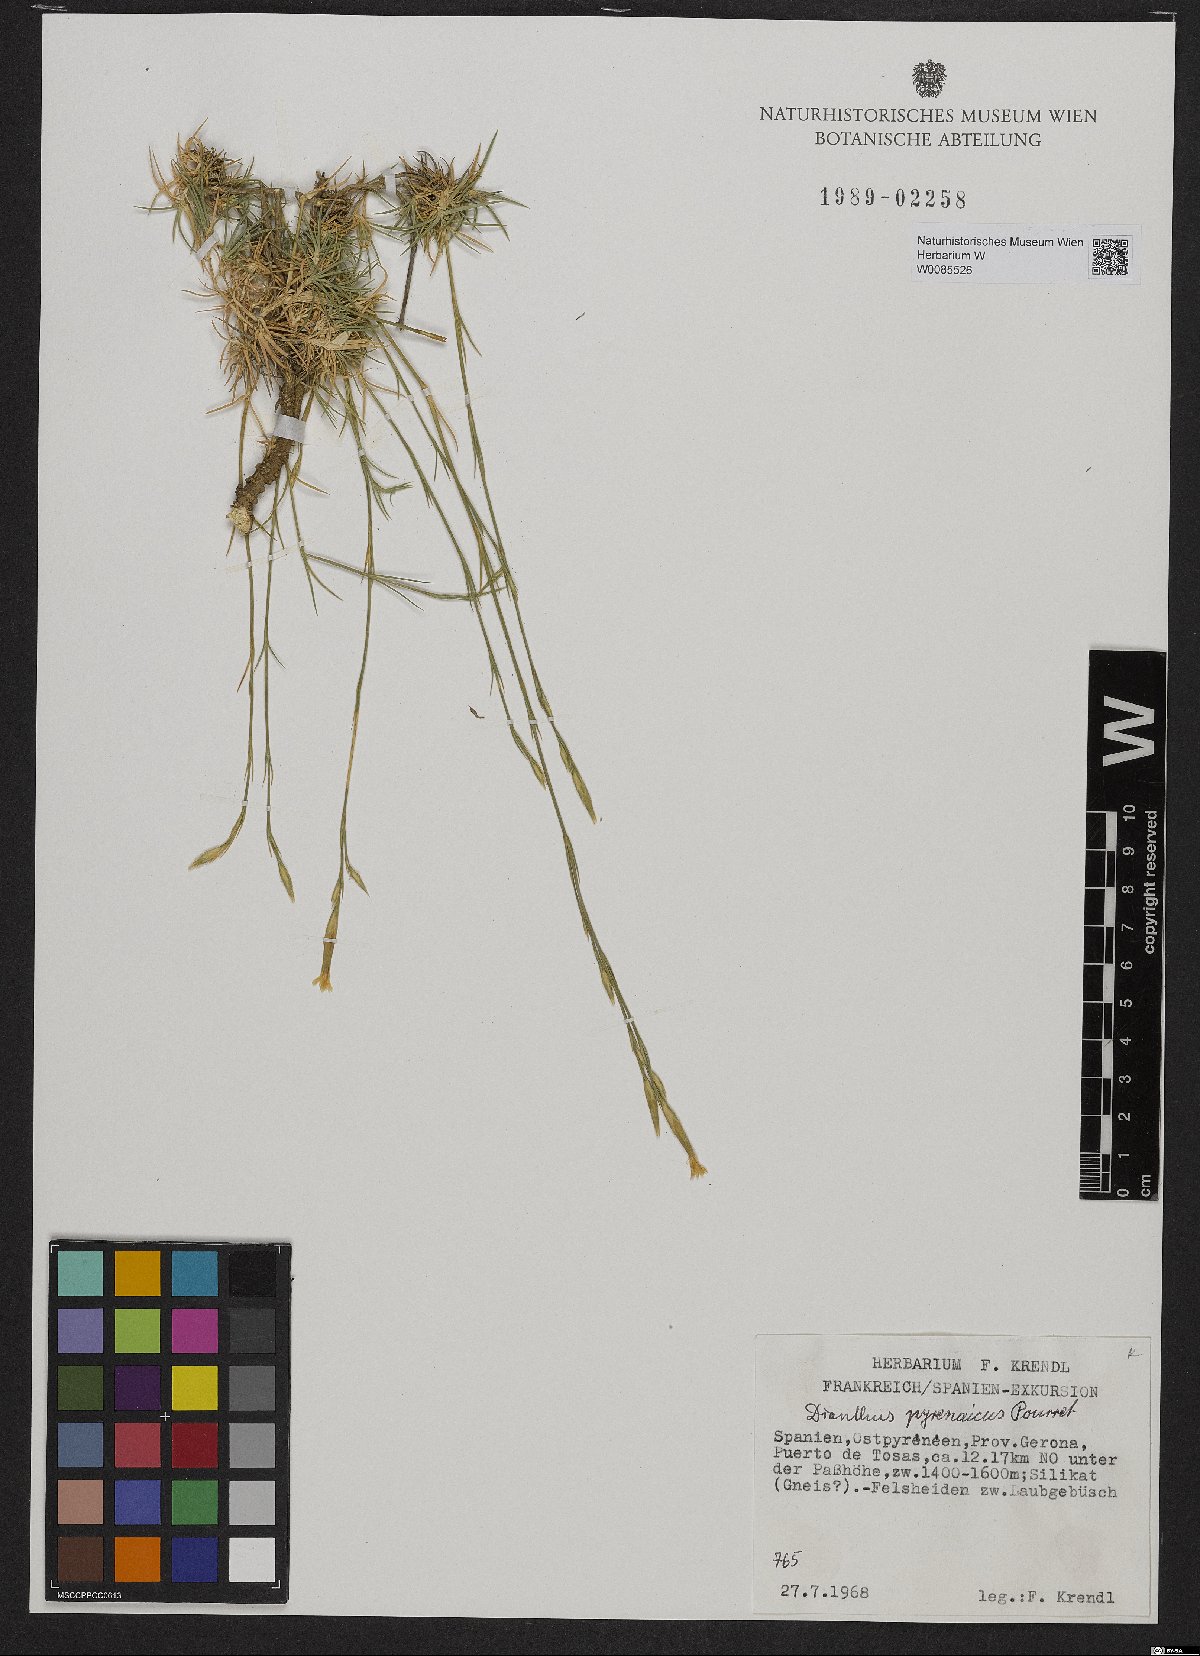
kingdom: Plantae
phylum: Tracheophyta
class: Magnoliopsida
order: Caryophyllales
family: Caryophyllaceae
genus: Dianthus
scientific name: Dianthus pyrenaicus
